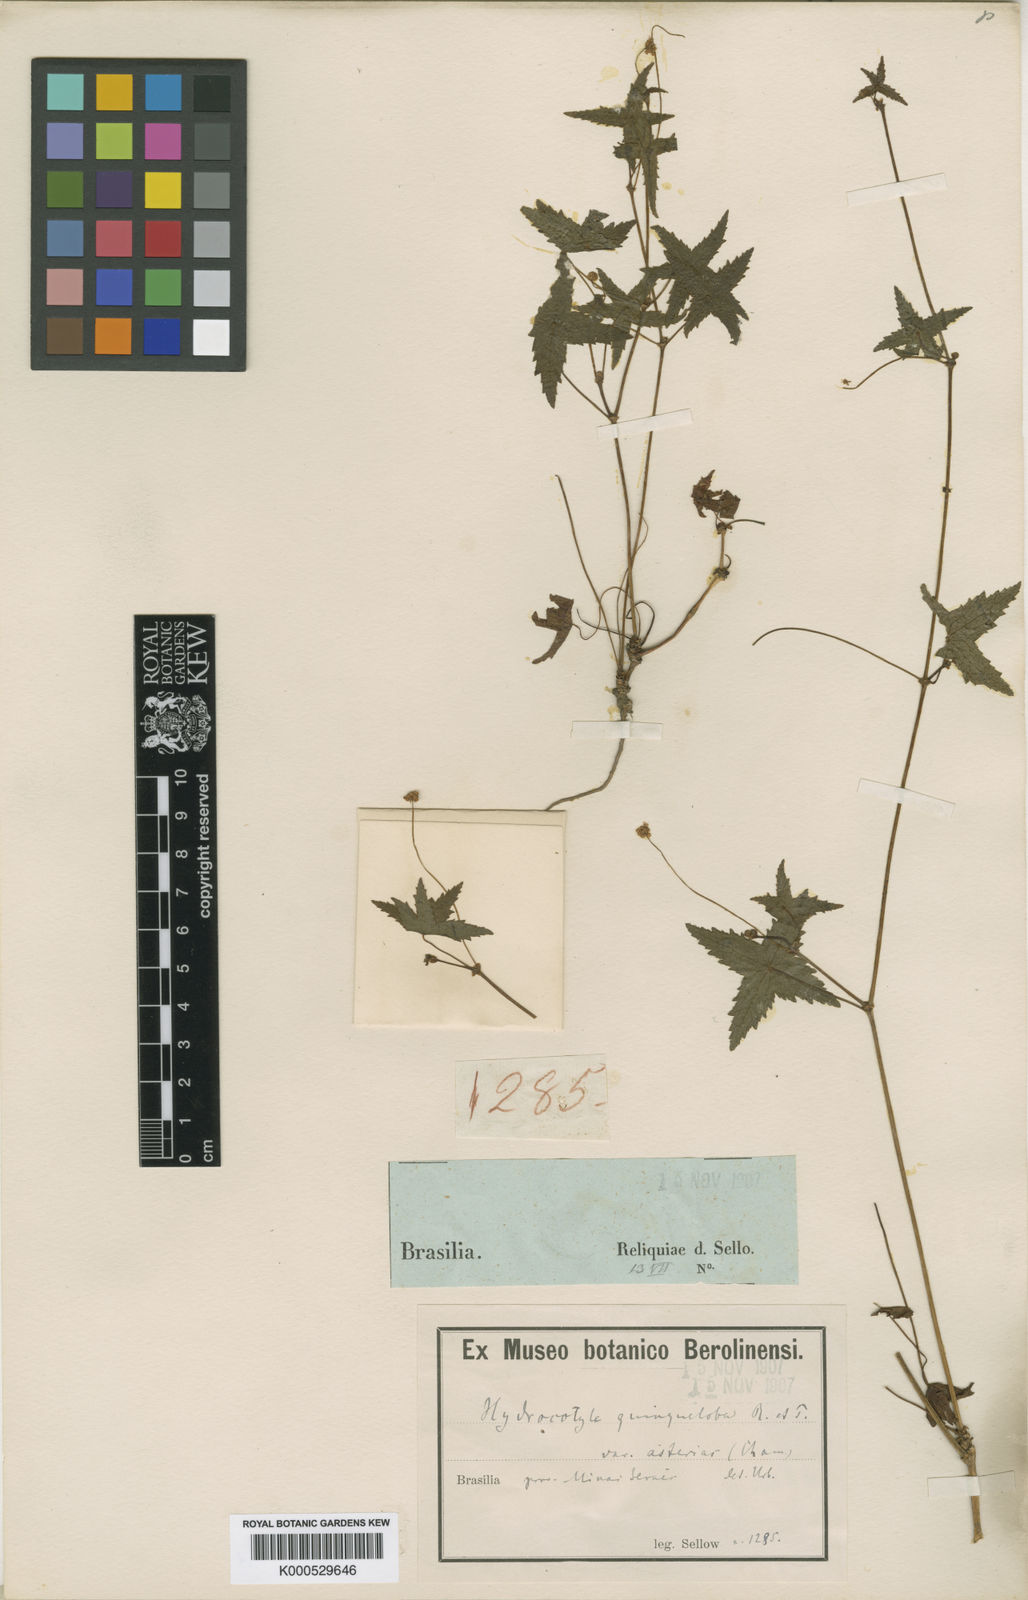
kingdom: Plantae
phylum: Tracheophyta
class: Magnoliopsida
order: Apiales
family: Araliaceae
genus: Hydrocotyle
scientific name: Hydrocotyle quinqueloba
